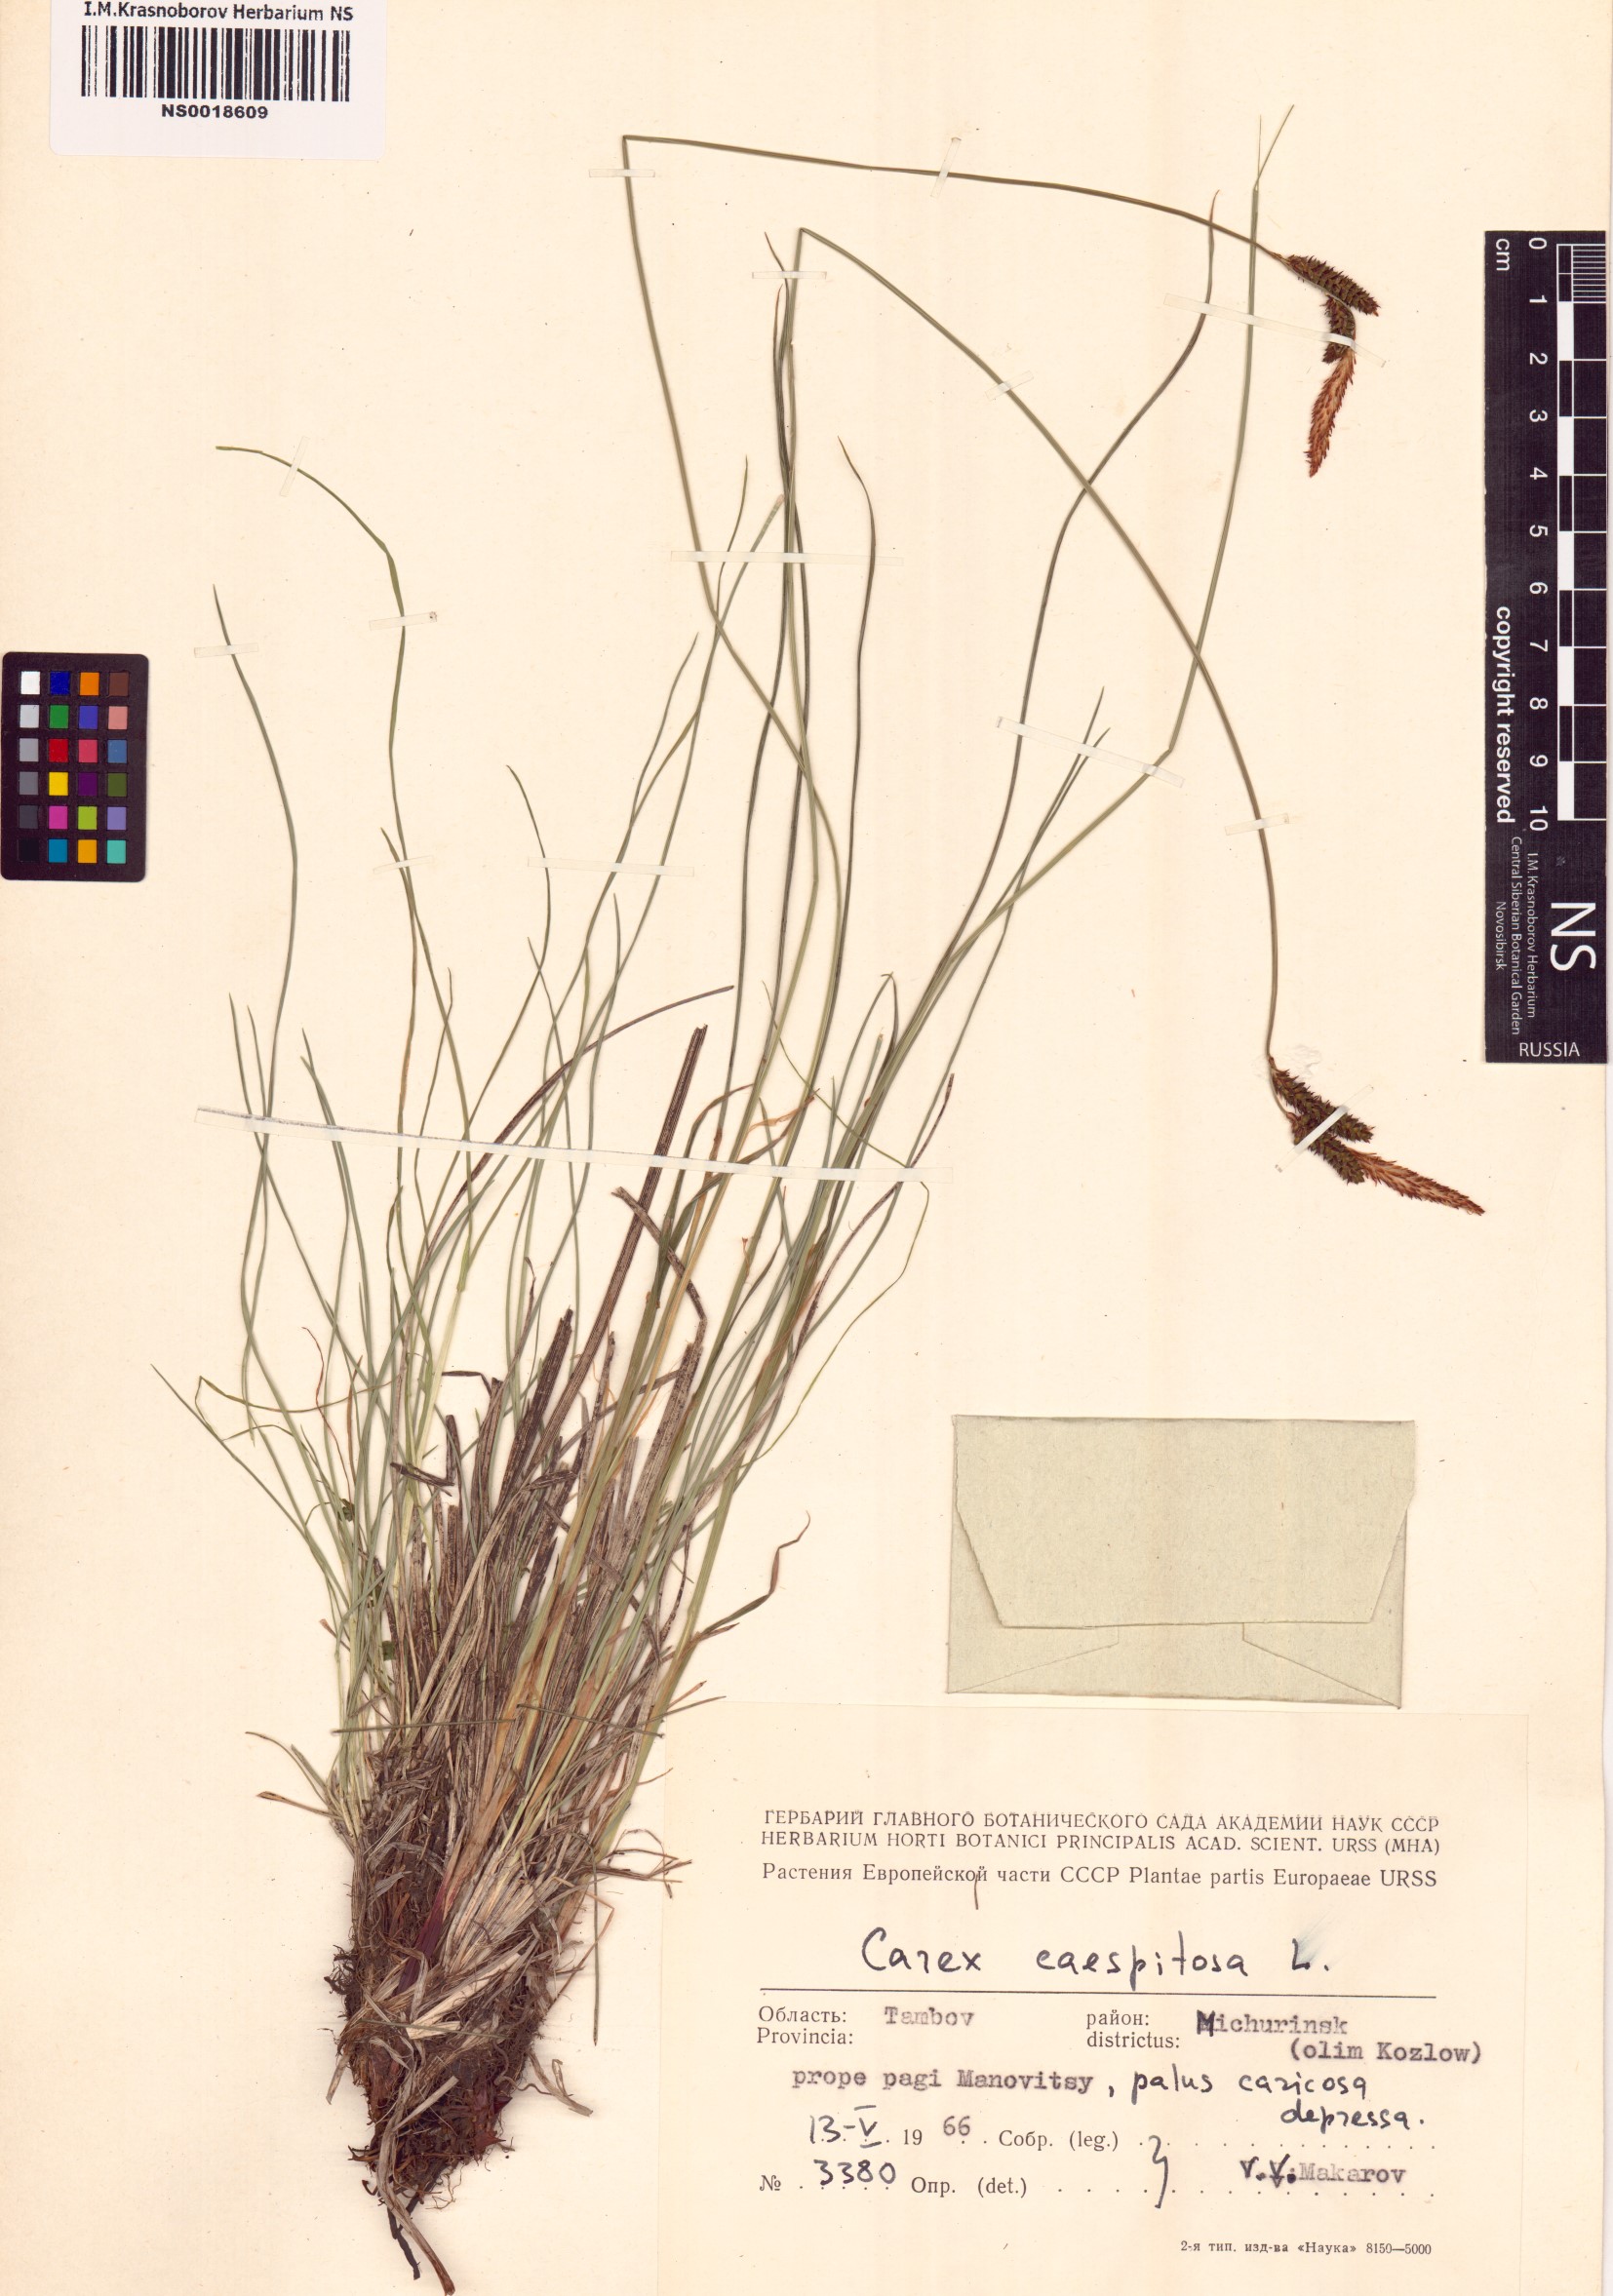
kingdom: Plantae
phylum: Tracheophyta
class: Liliopsida
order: Poales
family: Cyperaceae
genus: Carex
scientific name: Carex cespitosa
